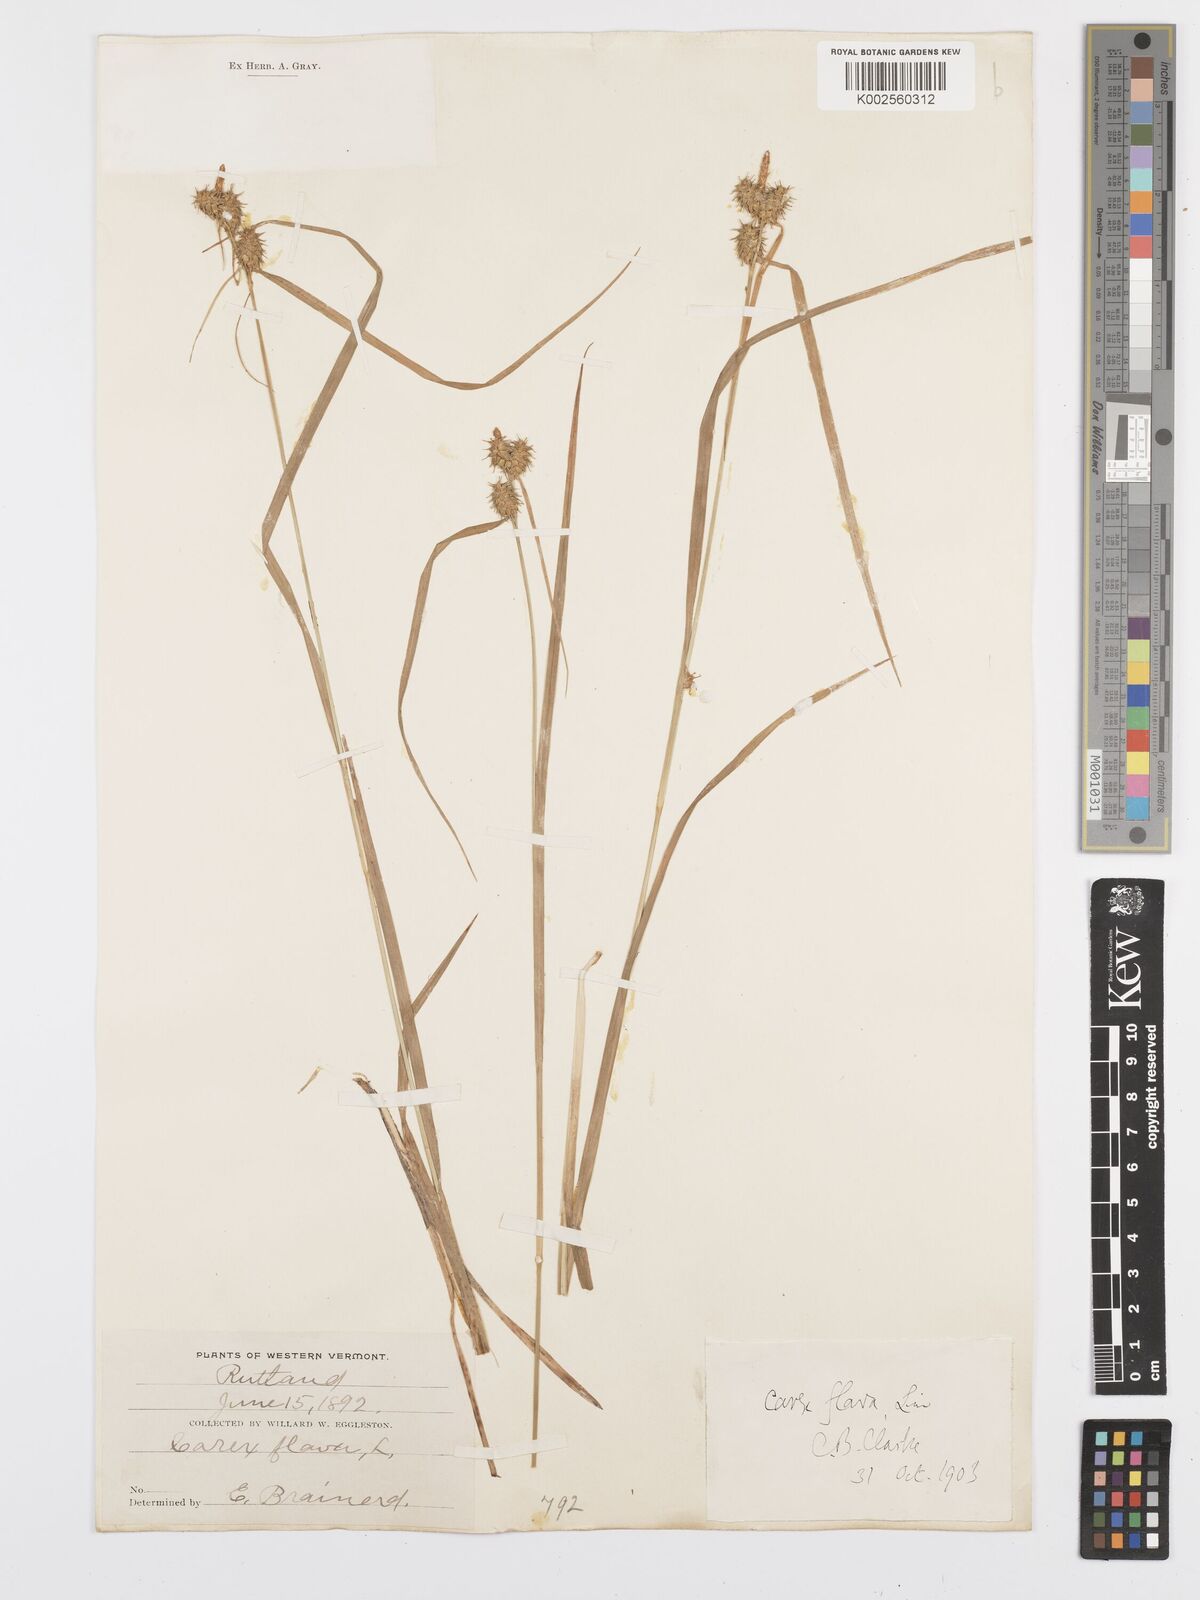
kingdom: Plantae
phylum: Tracheophyta
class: Liliopsida
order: Poales
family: Cyperaceae
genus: Carex
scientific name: Carex flava
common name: Large yellow-sedge
